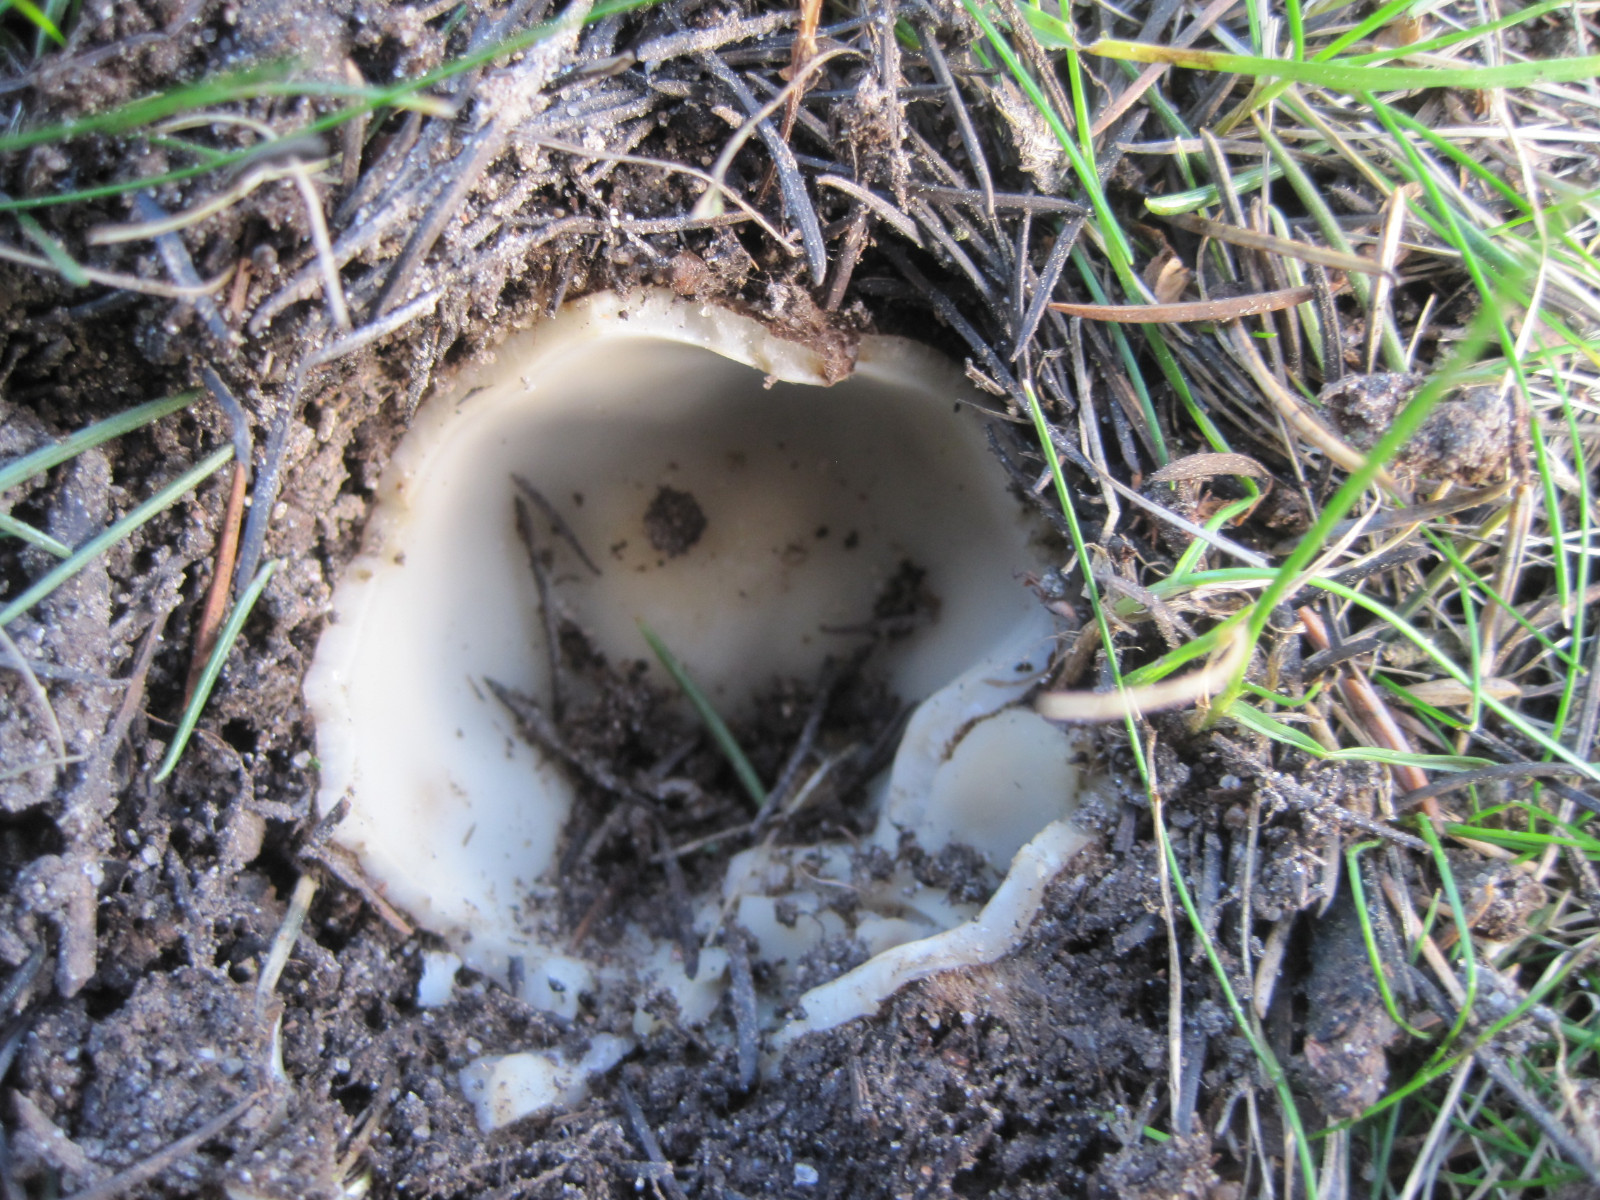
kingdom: Fungi
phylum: Ascomycota
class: Pezizomycetes
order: Pezizales
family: Pyronemataceae
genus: Geopora
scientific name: Geopora sumneriana
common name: vår-jordbæger
